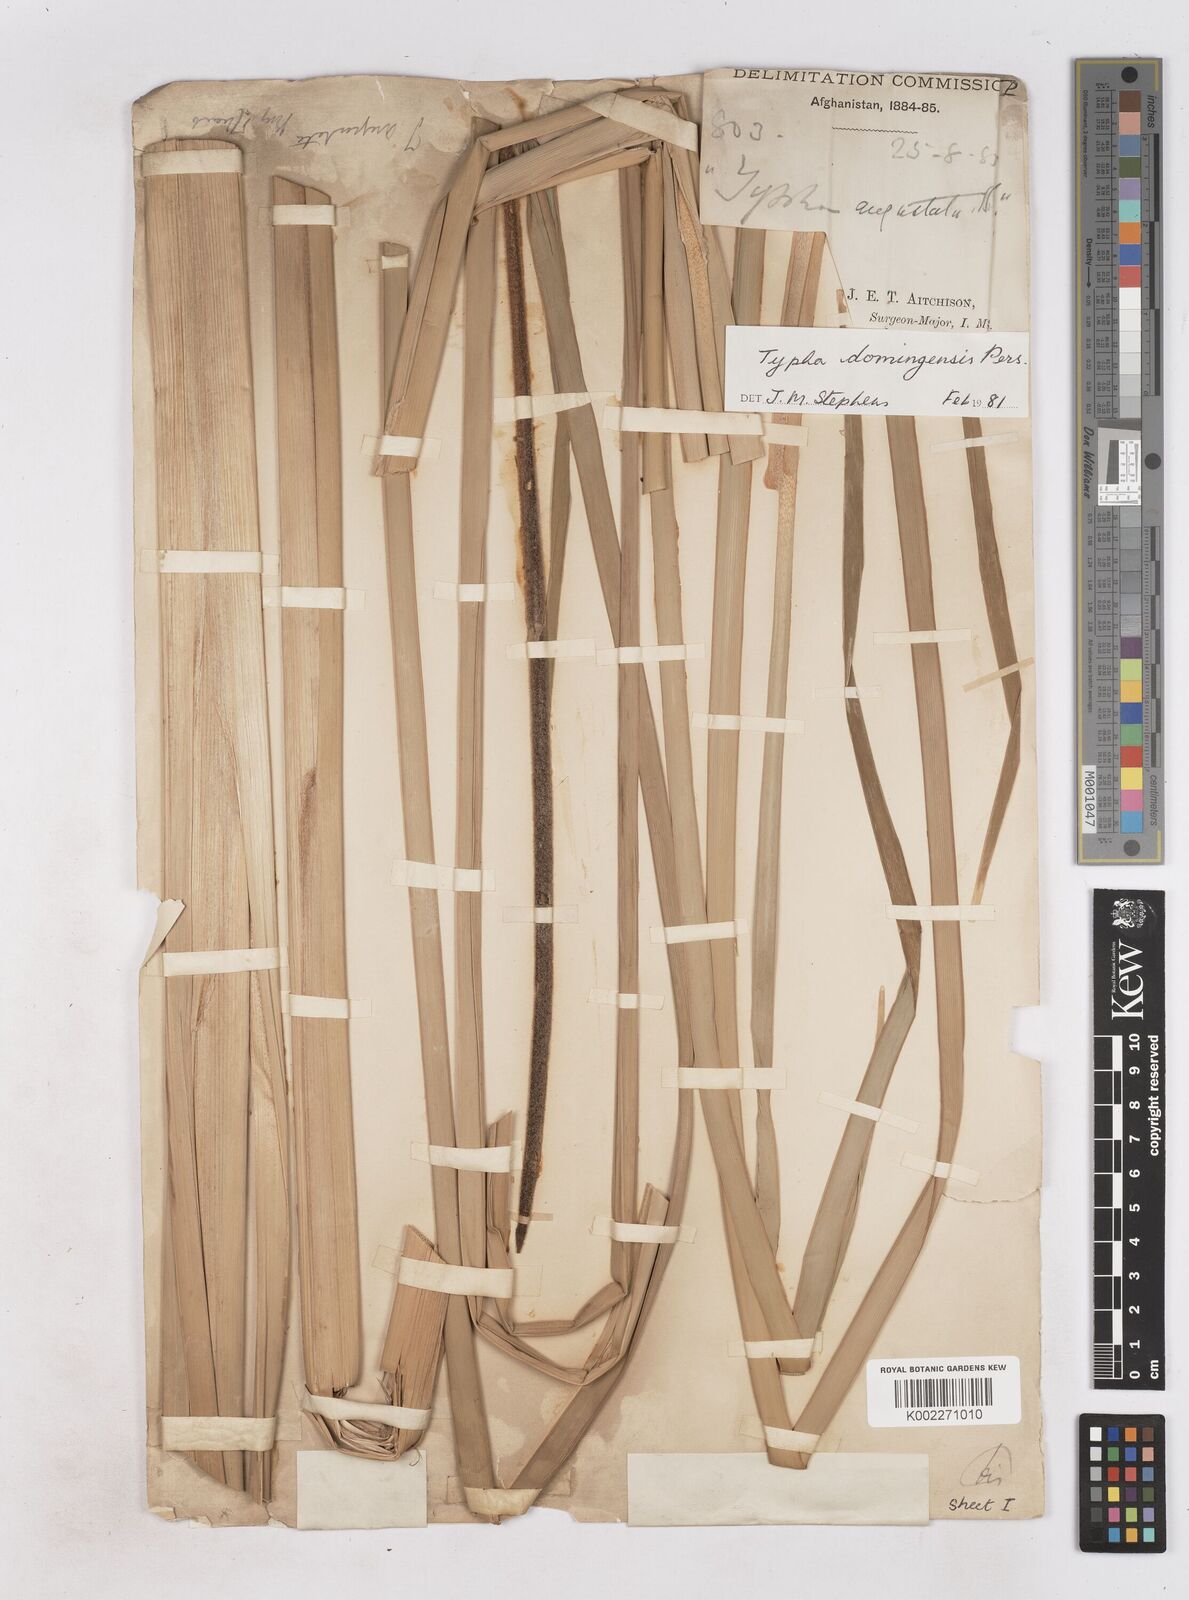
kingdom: Plantae
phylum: Tracheophyta
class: Liliopsida
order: Poales
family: Typhaceae
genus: Typha
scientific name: Typha domingensis
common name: Southern cattail
